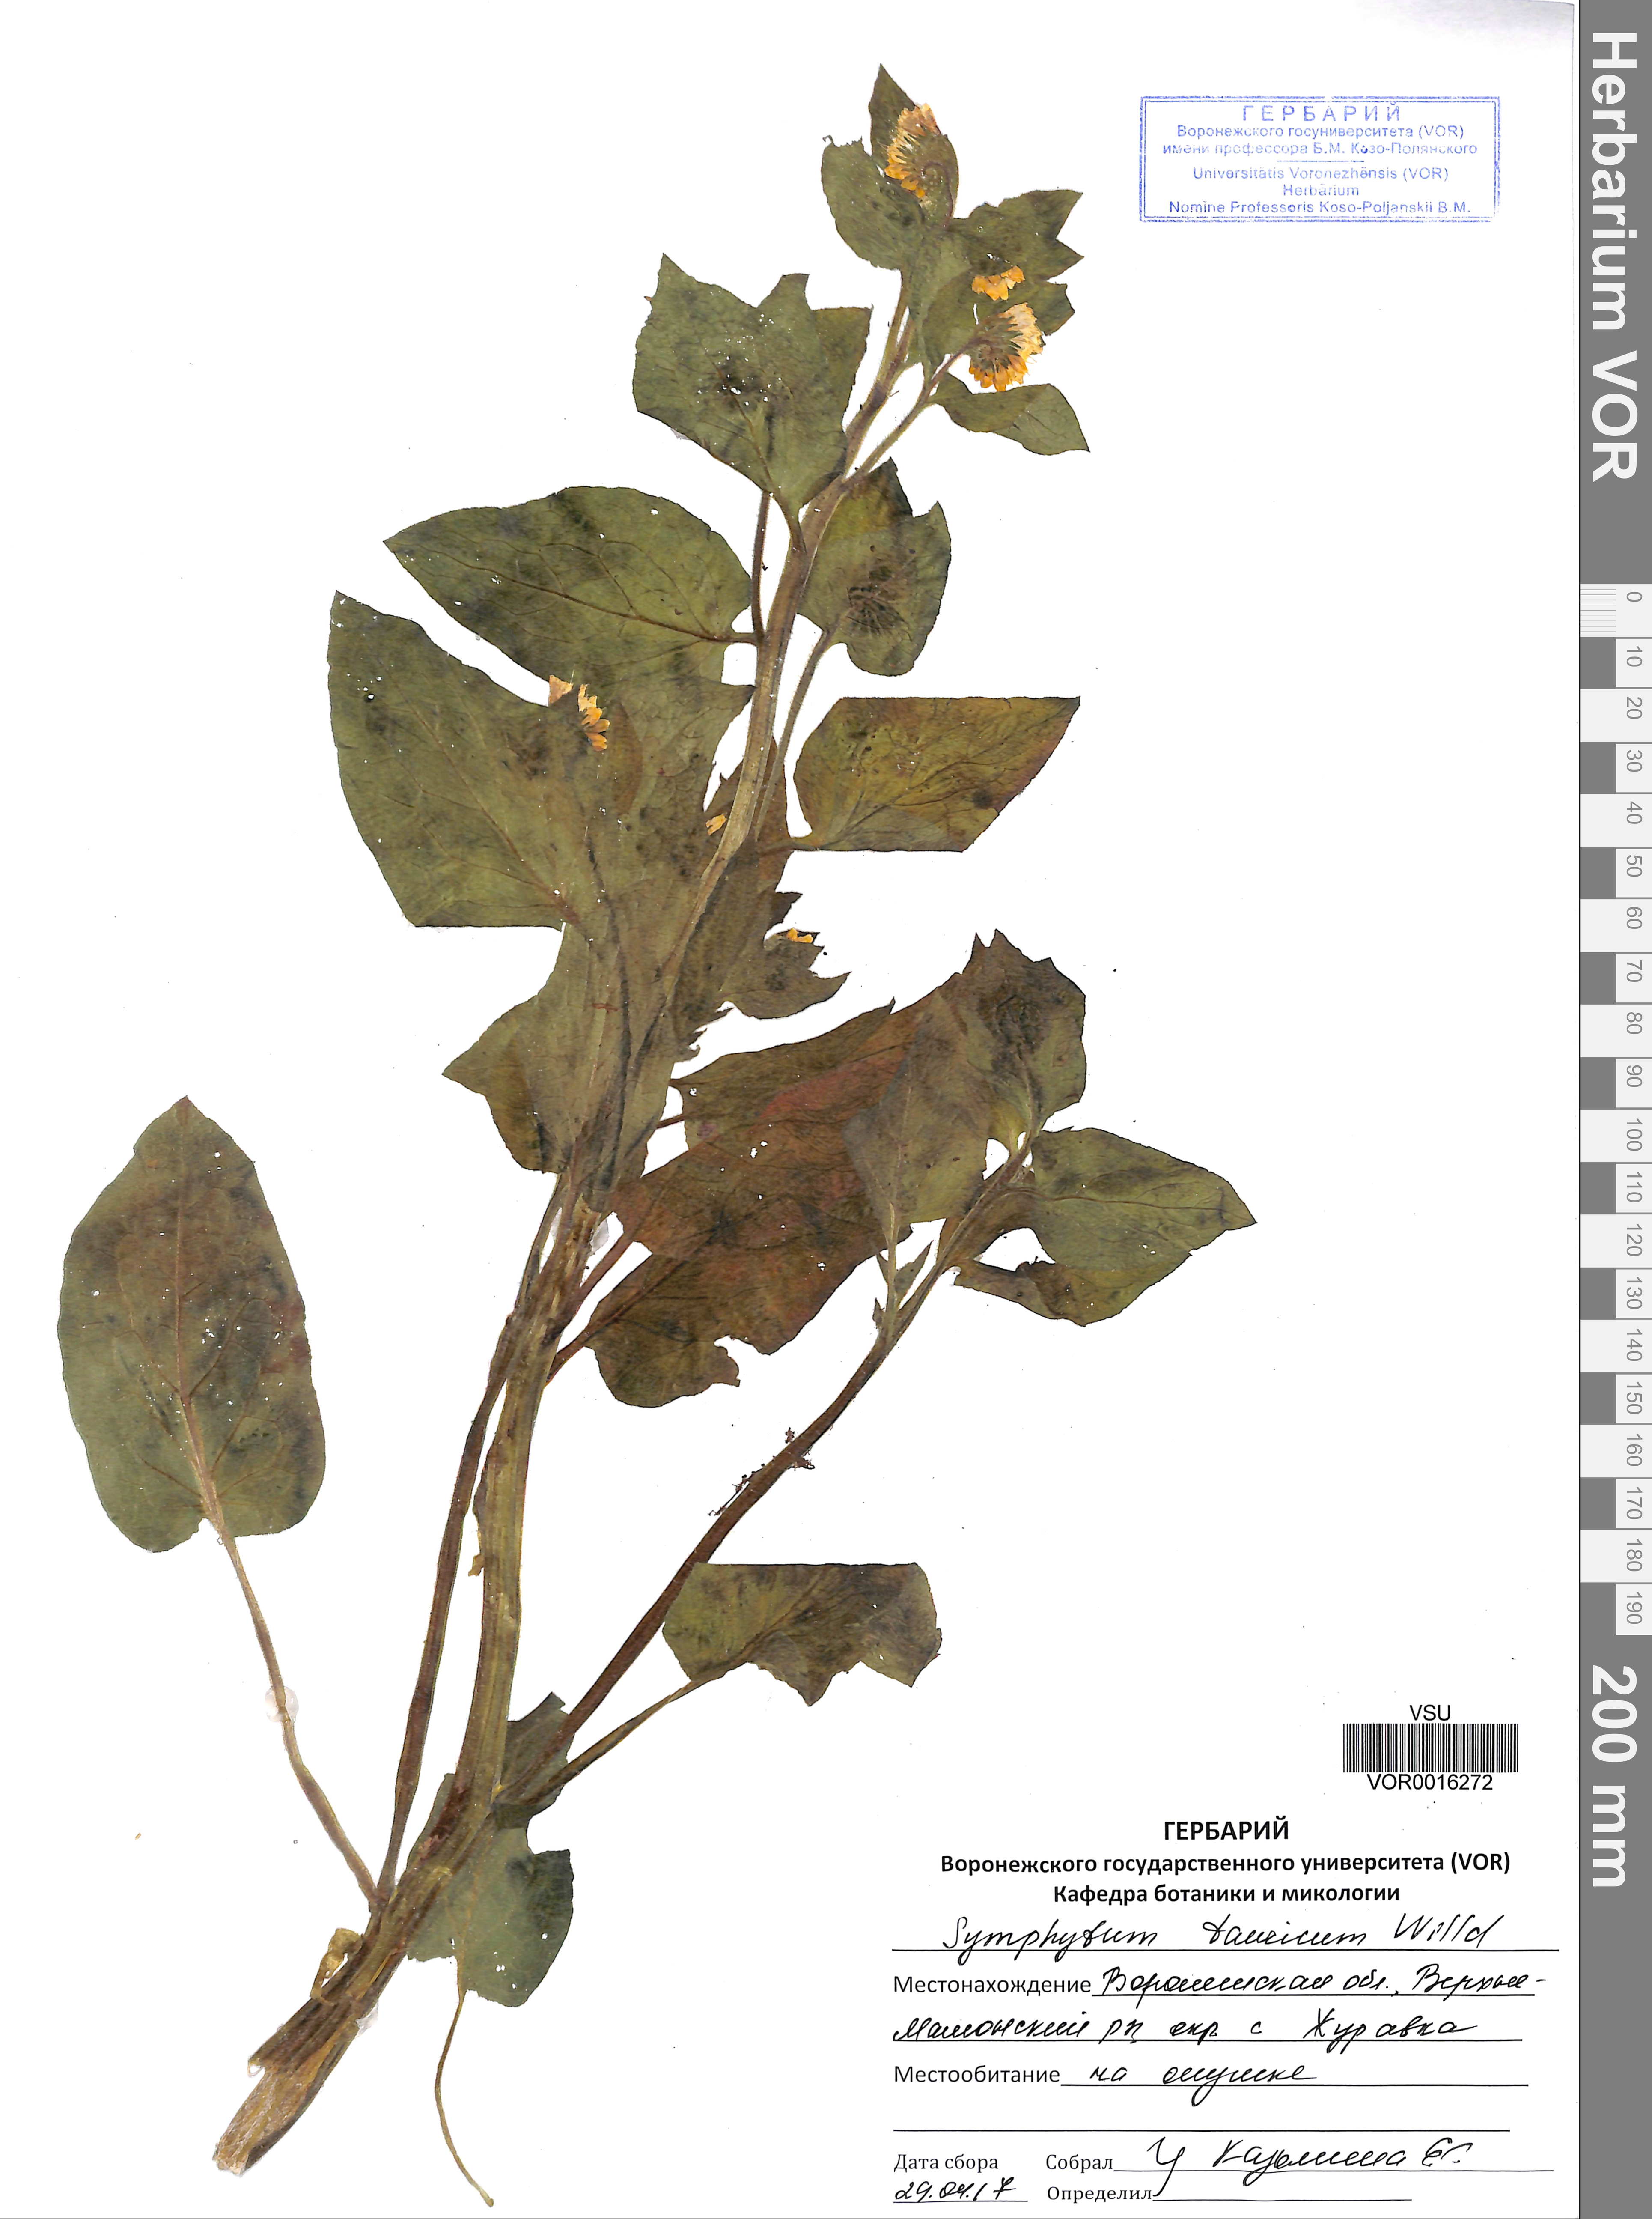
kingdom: Plantae
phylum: Tracheophyta
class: Magnoliopsida
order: Boraginales
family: Boraginaceae
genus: Symphytum
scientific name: Symphytum tauricum
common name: Crimean comfrey
